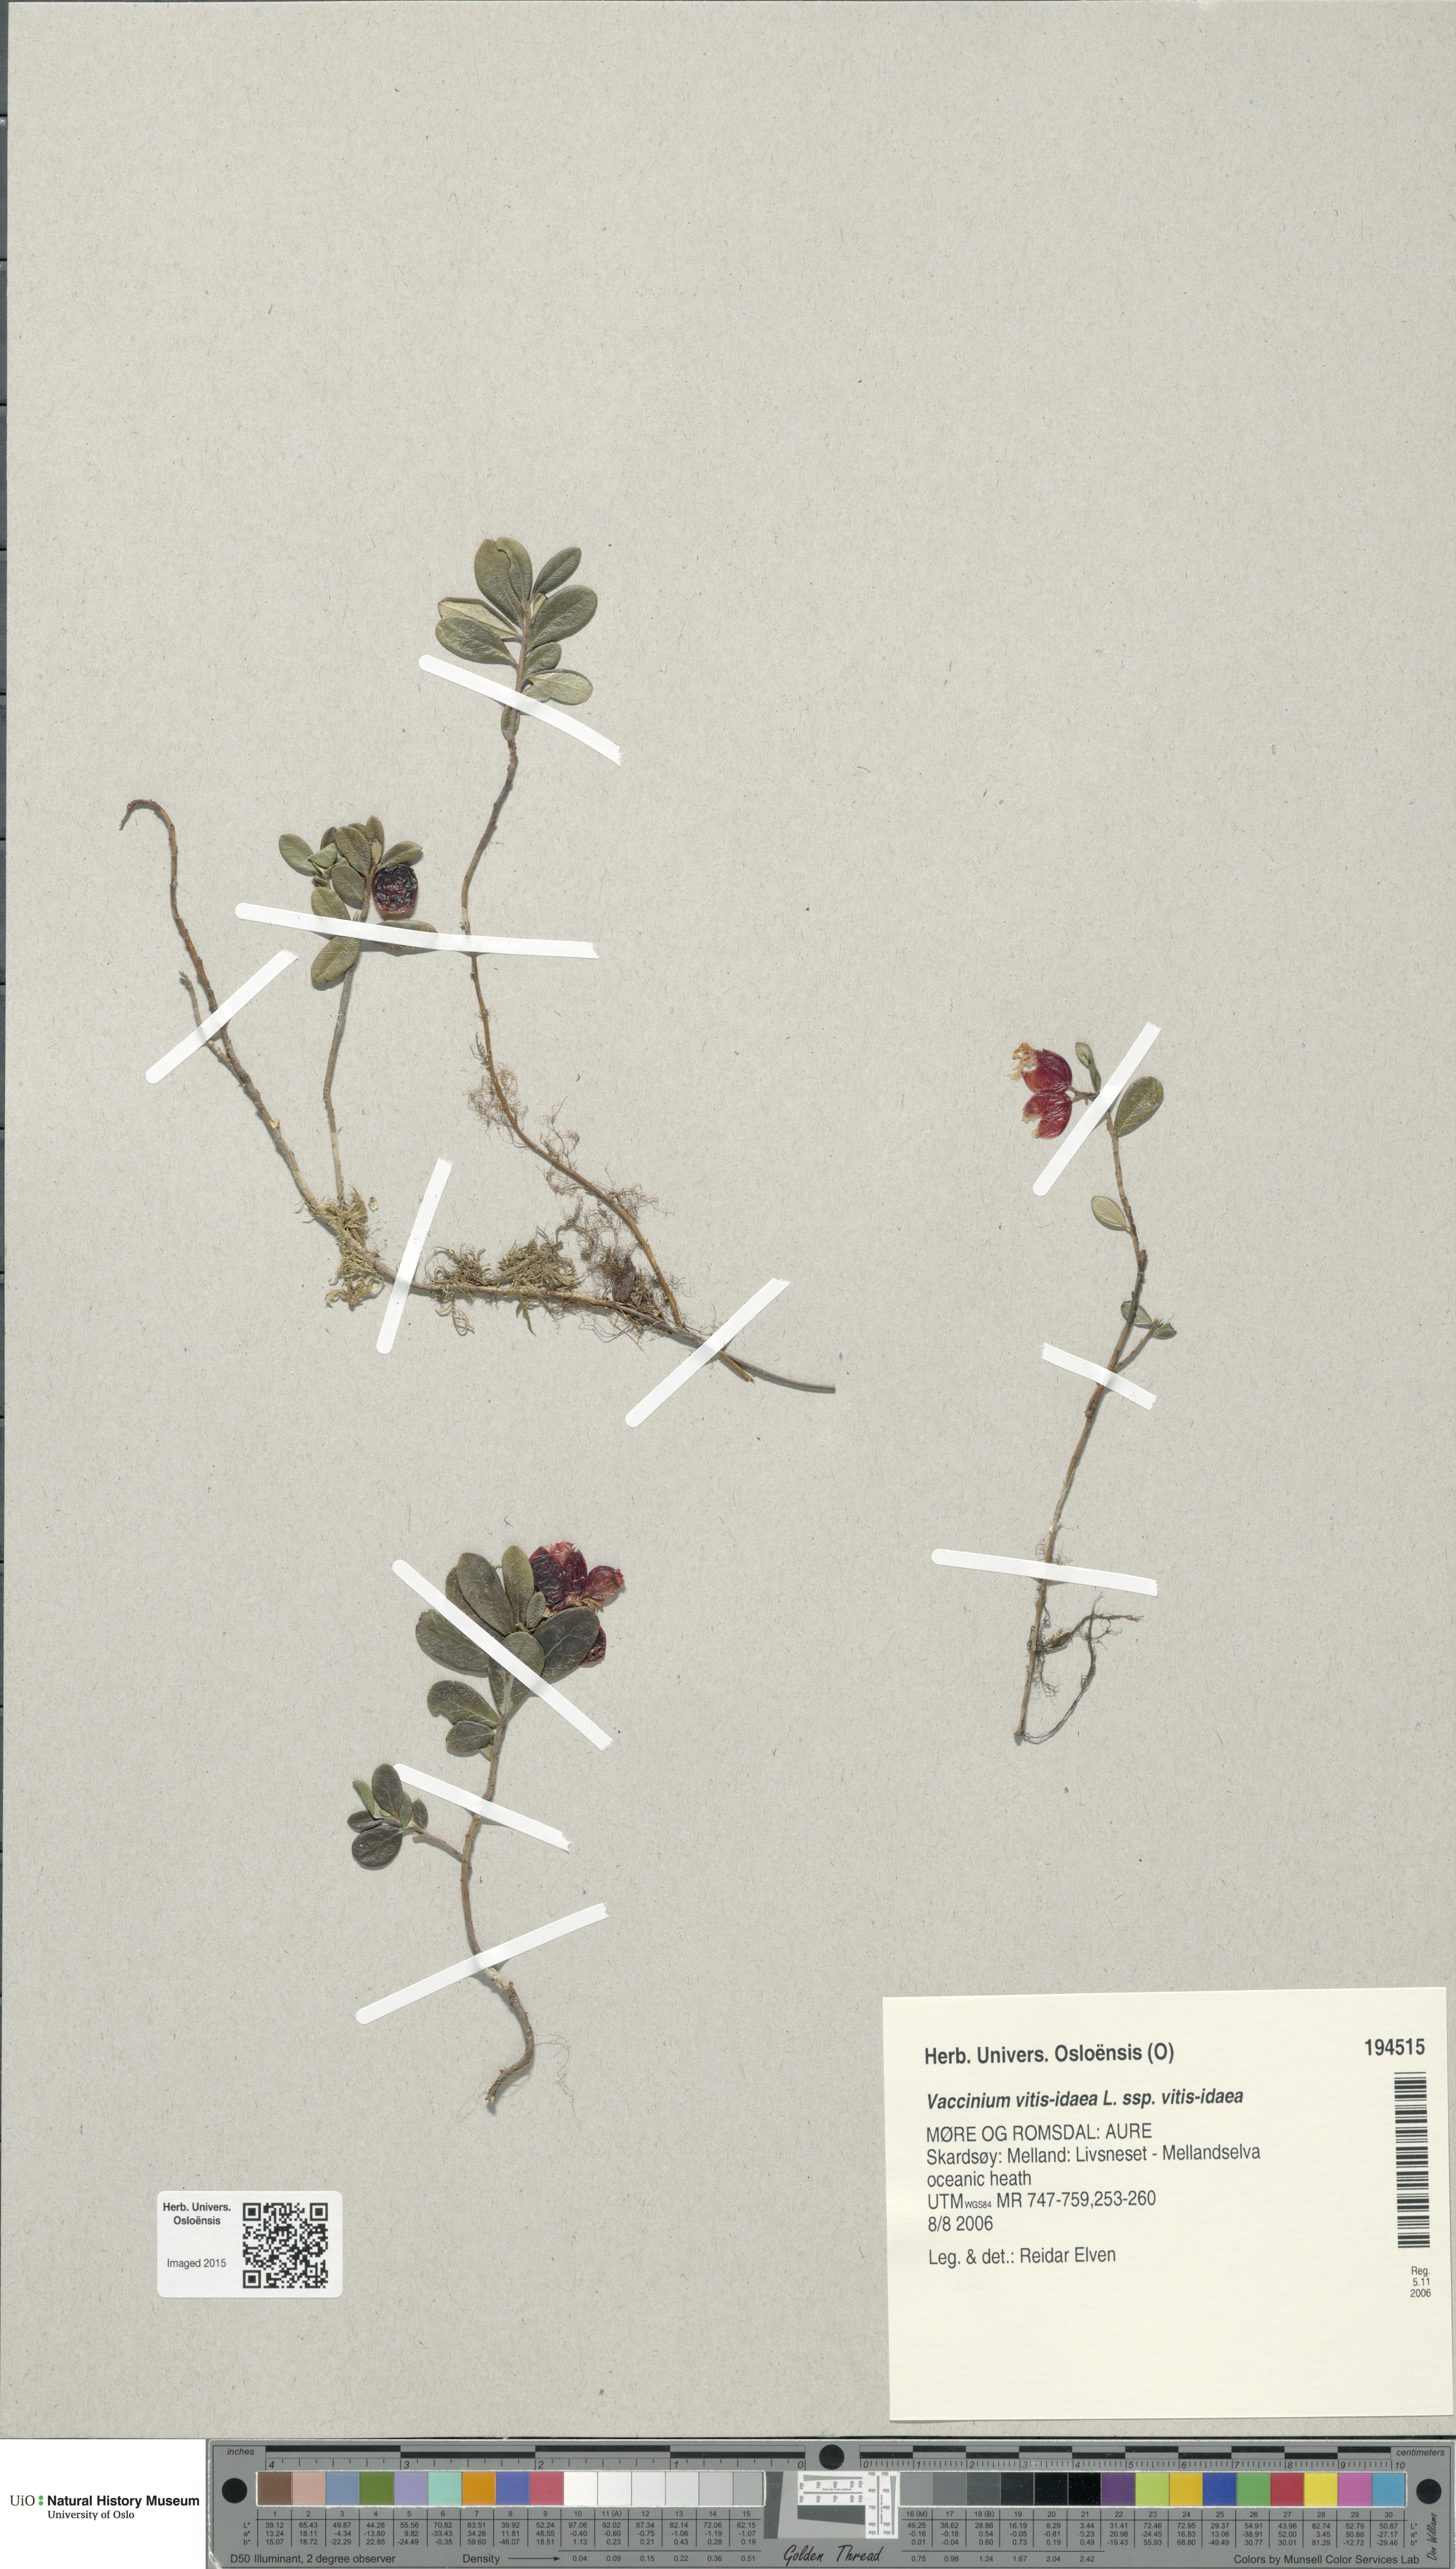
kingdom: Plantae
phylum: Tracheophyta
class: Magnoliopsida
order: Ericales
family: Ericaceae
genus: Vaccinium
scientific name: Vaccinium vitis-idaea
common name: Cowberry
